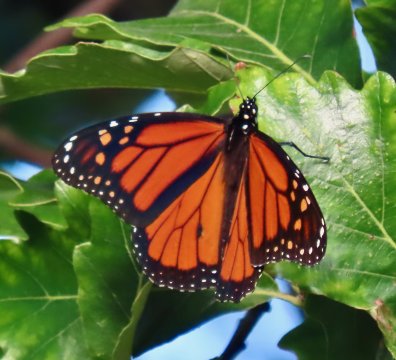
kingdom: Animalia
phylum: Arthropoda
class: Insecta
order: Lepidoptera
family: Nymphalidae
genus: Danaus
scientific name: Danaus plexippus
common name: Monarch
